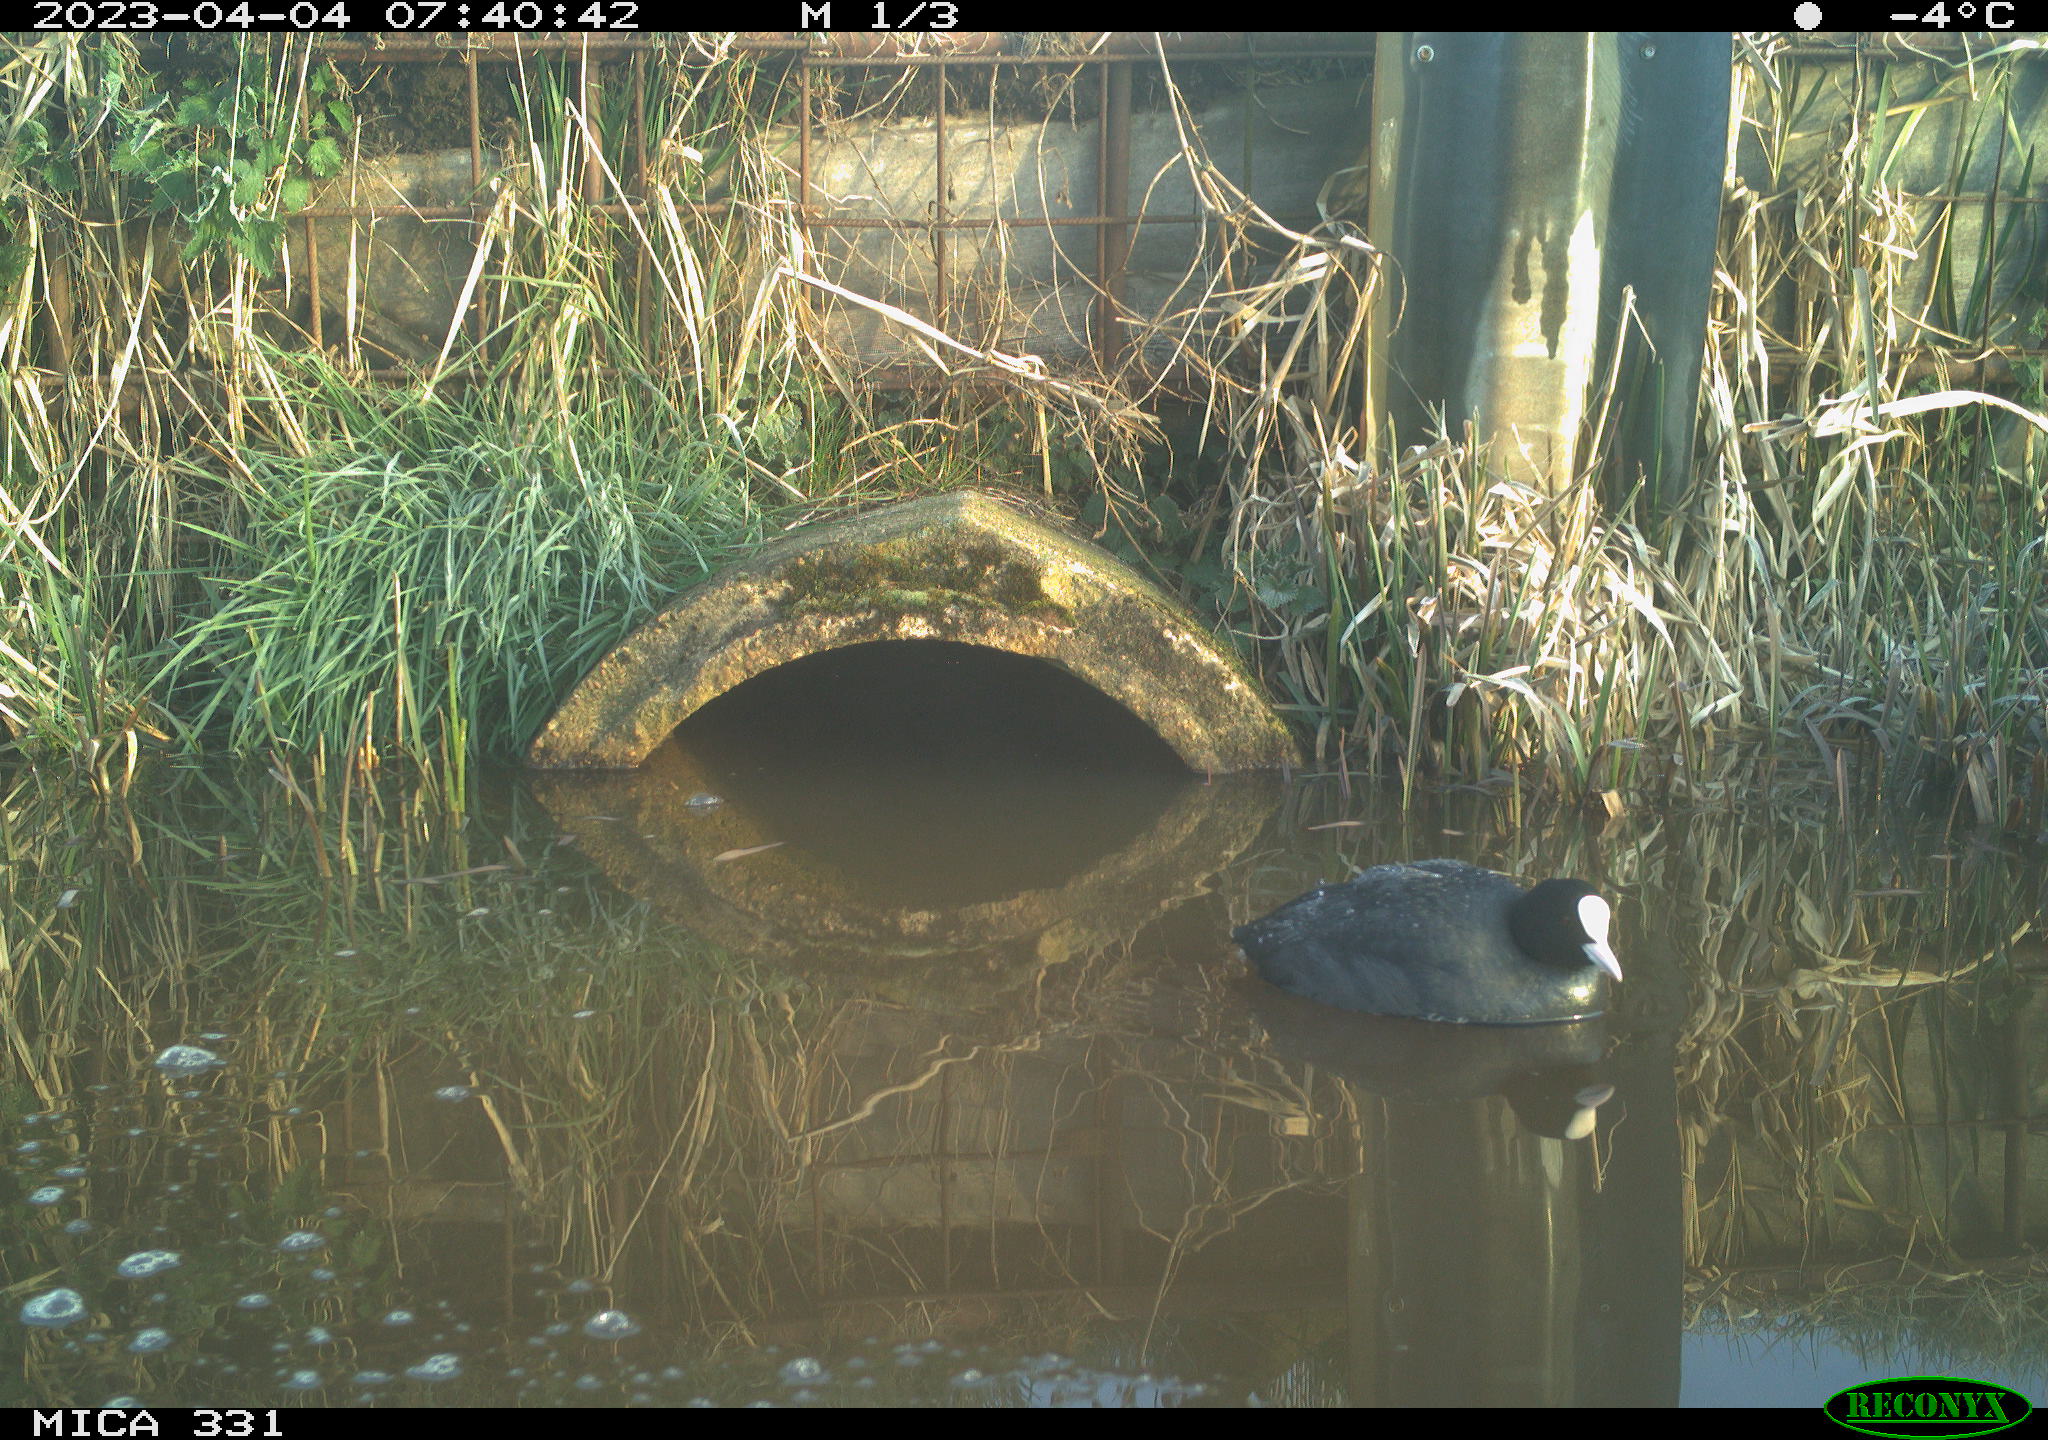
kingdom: Animalia
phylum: Chordata
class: Aves
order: Gruiformes
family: Rallidae
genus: Fulica
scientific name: Fulica atra
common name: Eurasian coot
